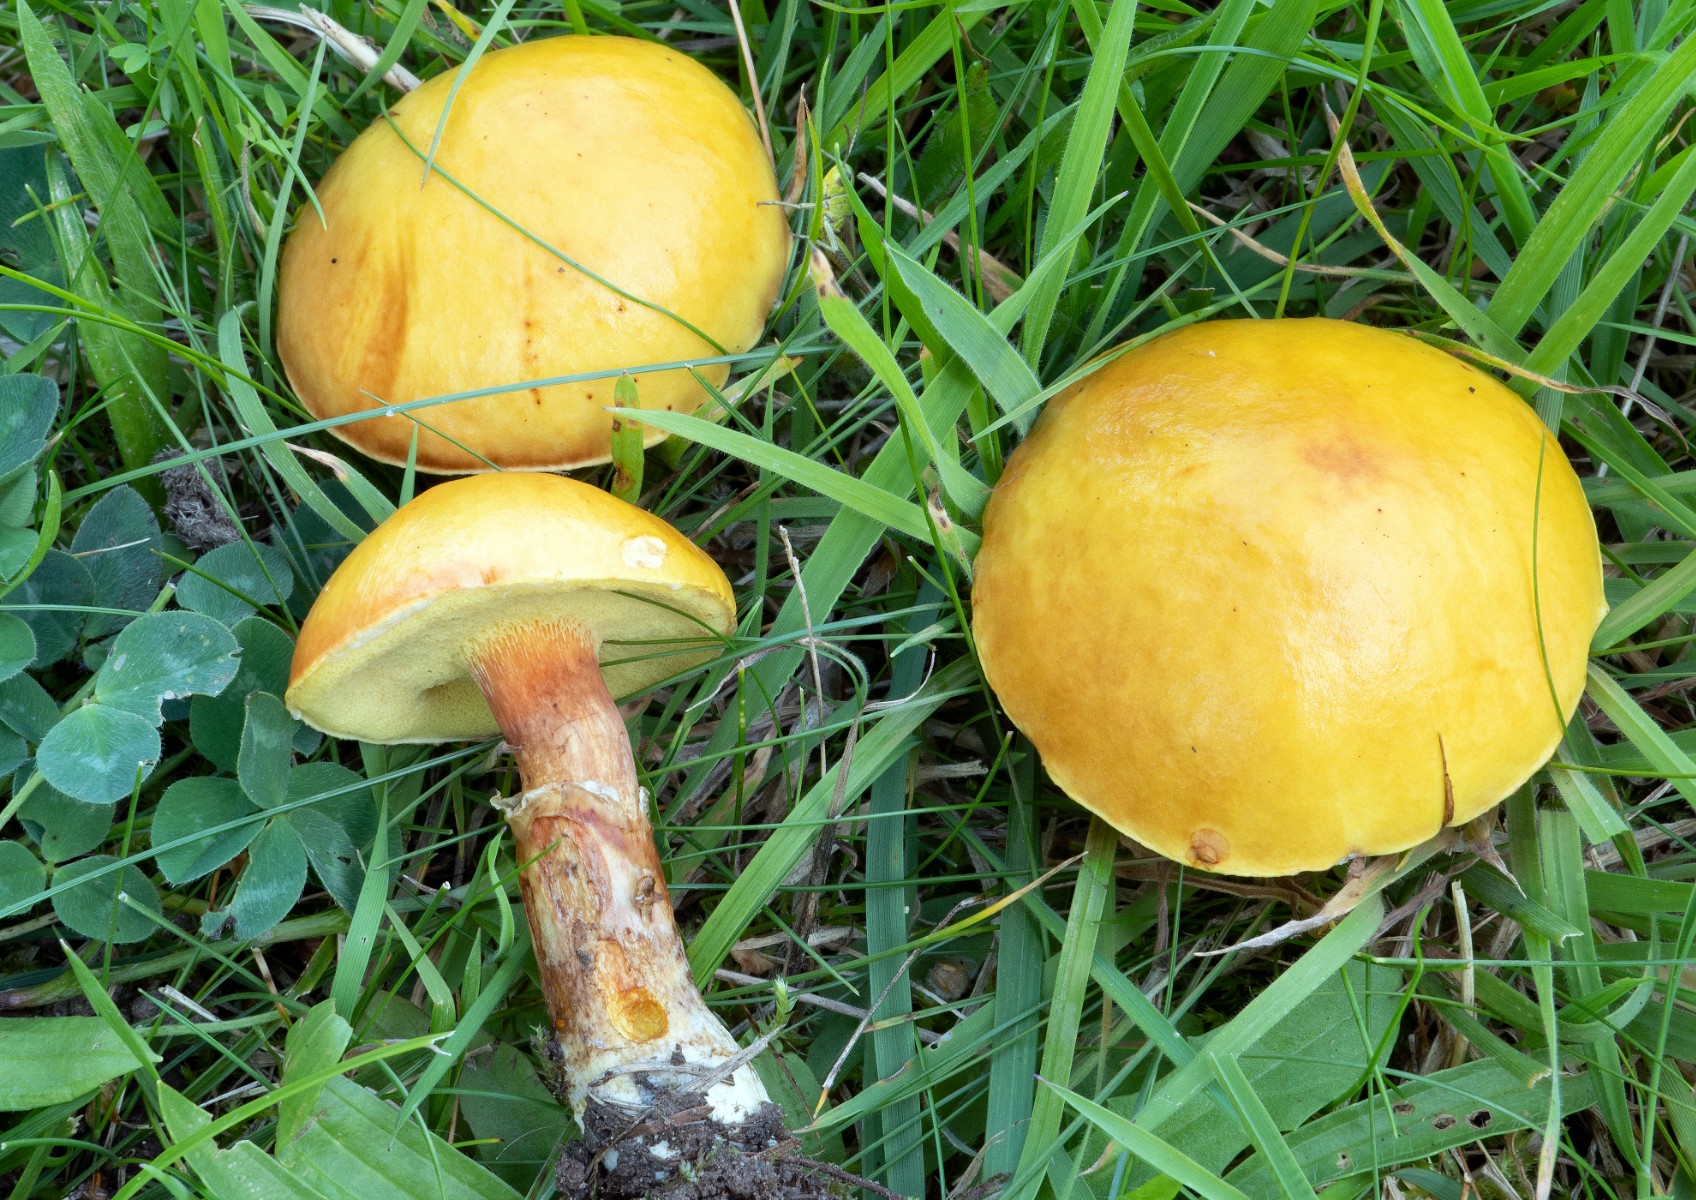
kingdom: Fungi
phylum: Basidiomycota
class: Agaricomycetes
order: Boletales
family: Suillaceae
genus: Suillus
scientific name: Suillus grevillei
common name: lærke-slimrørhat
